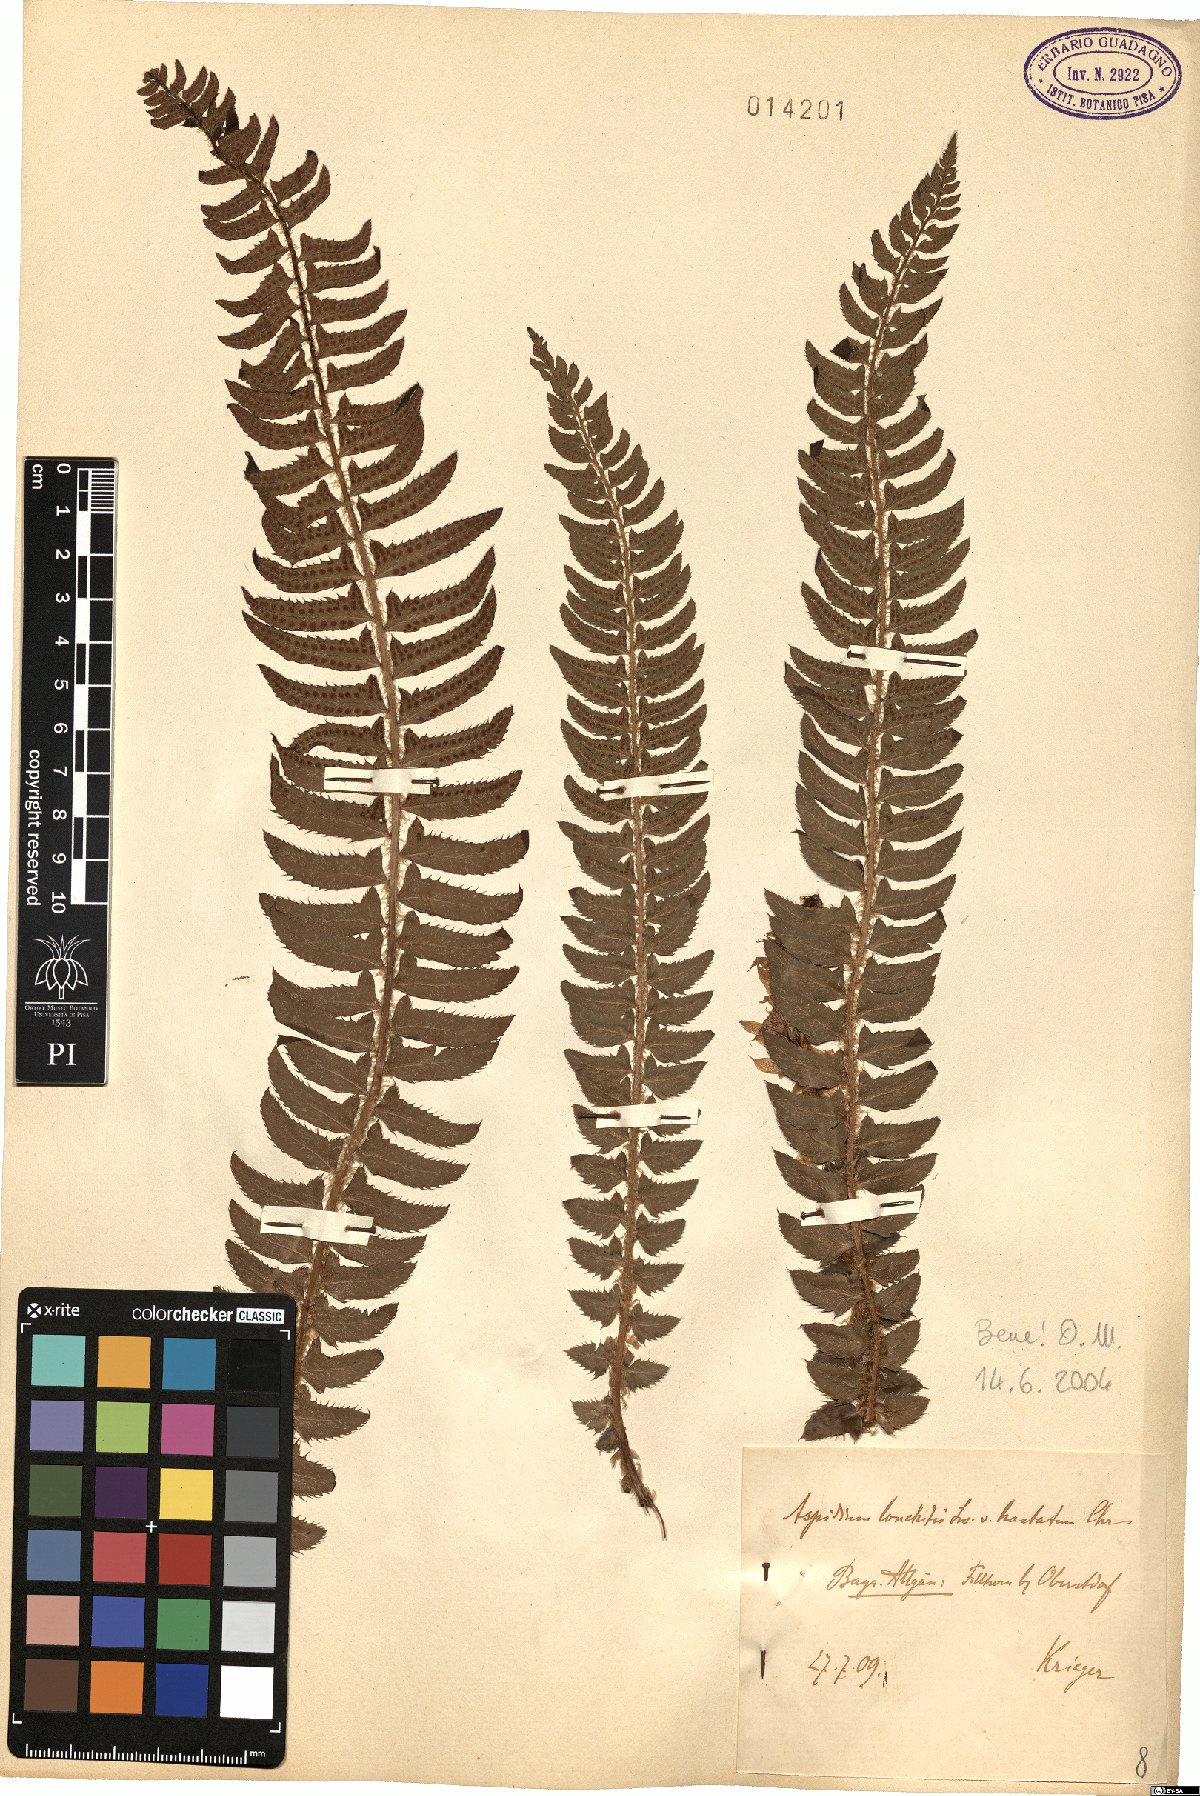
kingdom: Plantae
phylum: Tracheophyta
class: Polypodiopsida
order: Polypodiales
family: Dryopteridaceae
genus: Polystichum
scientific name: Polystichum lonchitis
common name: Holly fern
